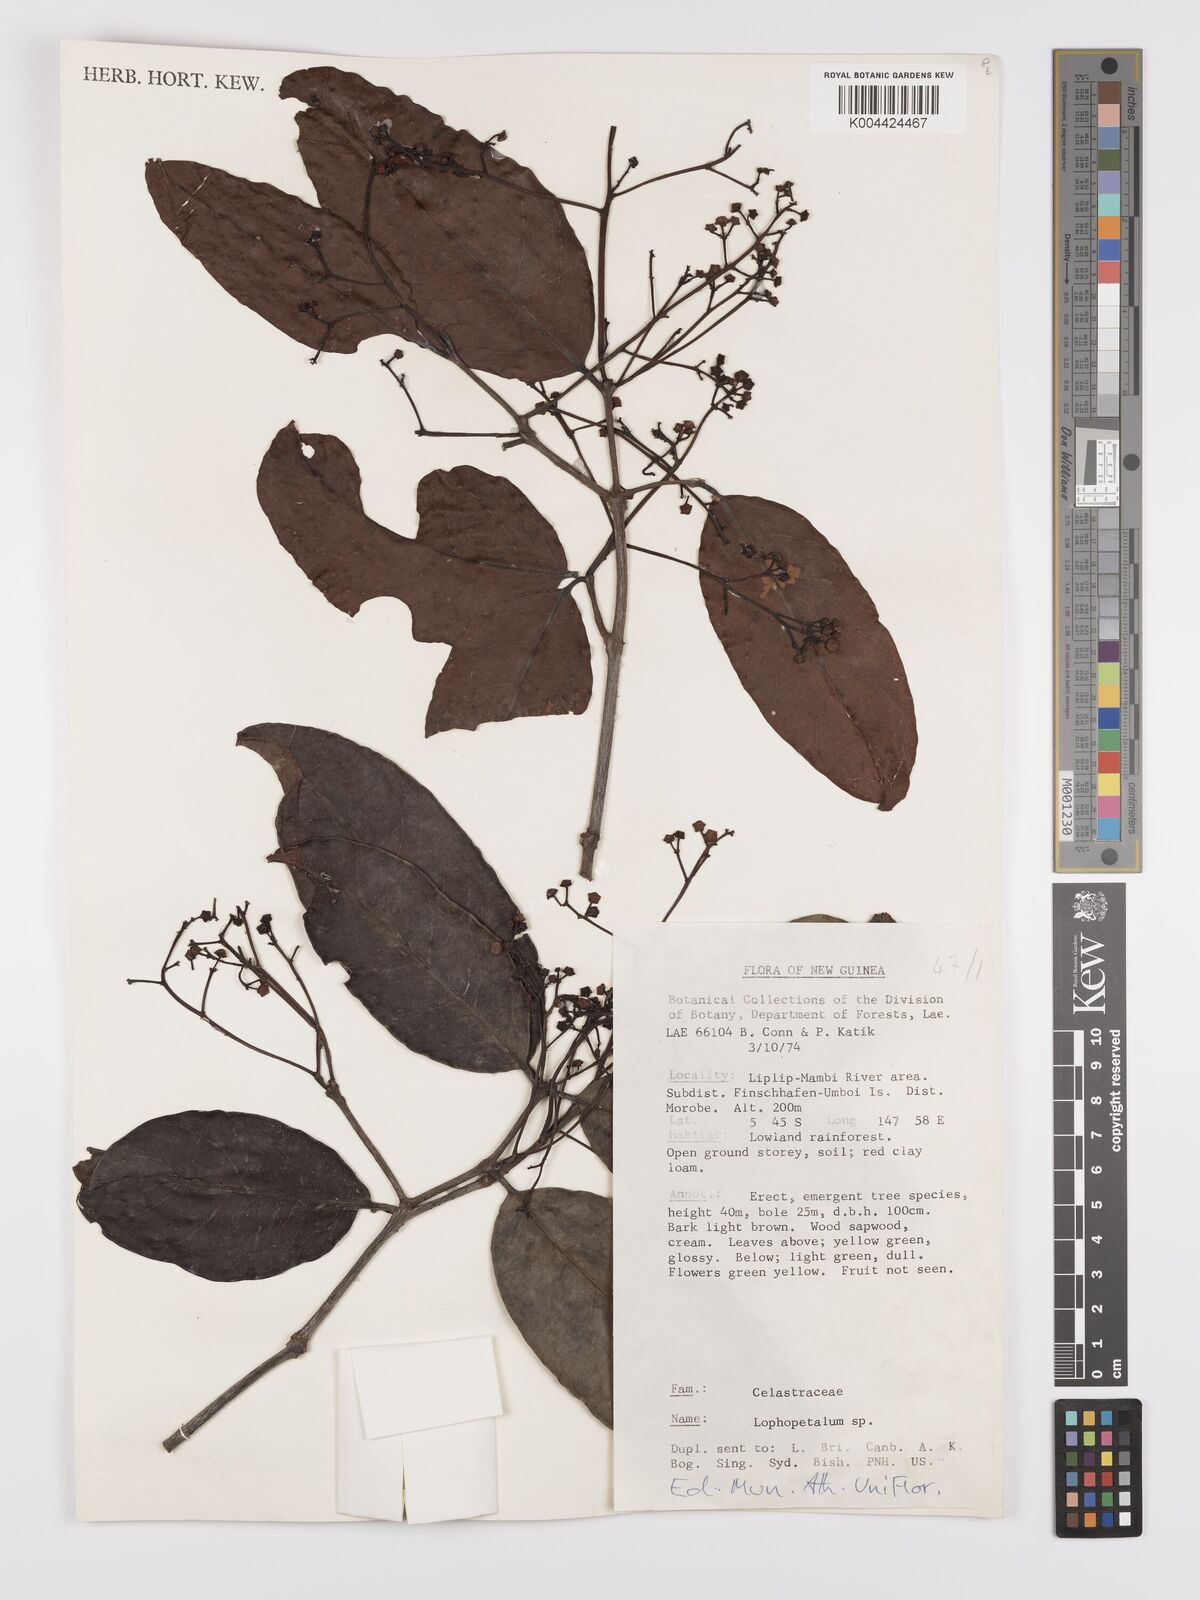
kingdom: Plantae
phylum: Tracheophyta
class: Magnoliopsida
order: Celastrales
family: Celastraceae
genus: Lophopetalum
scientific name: Lophopetalum
